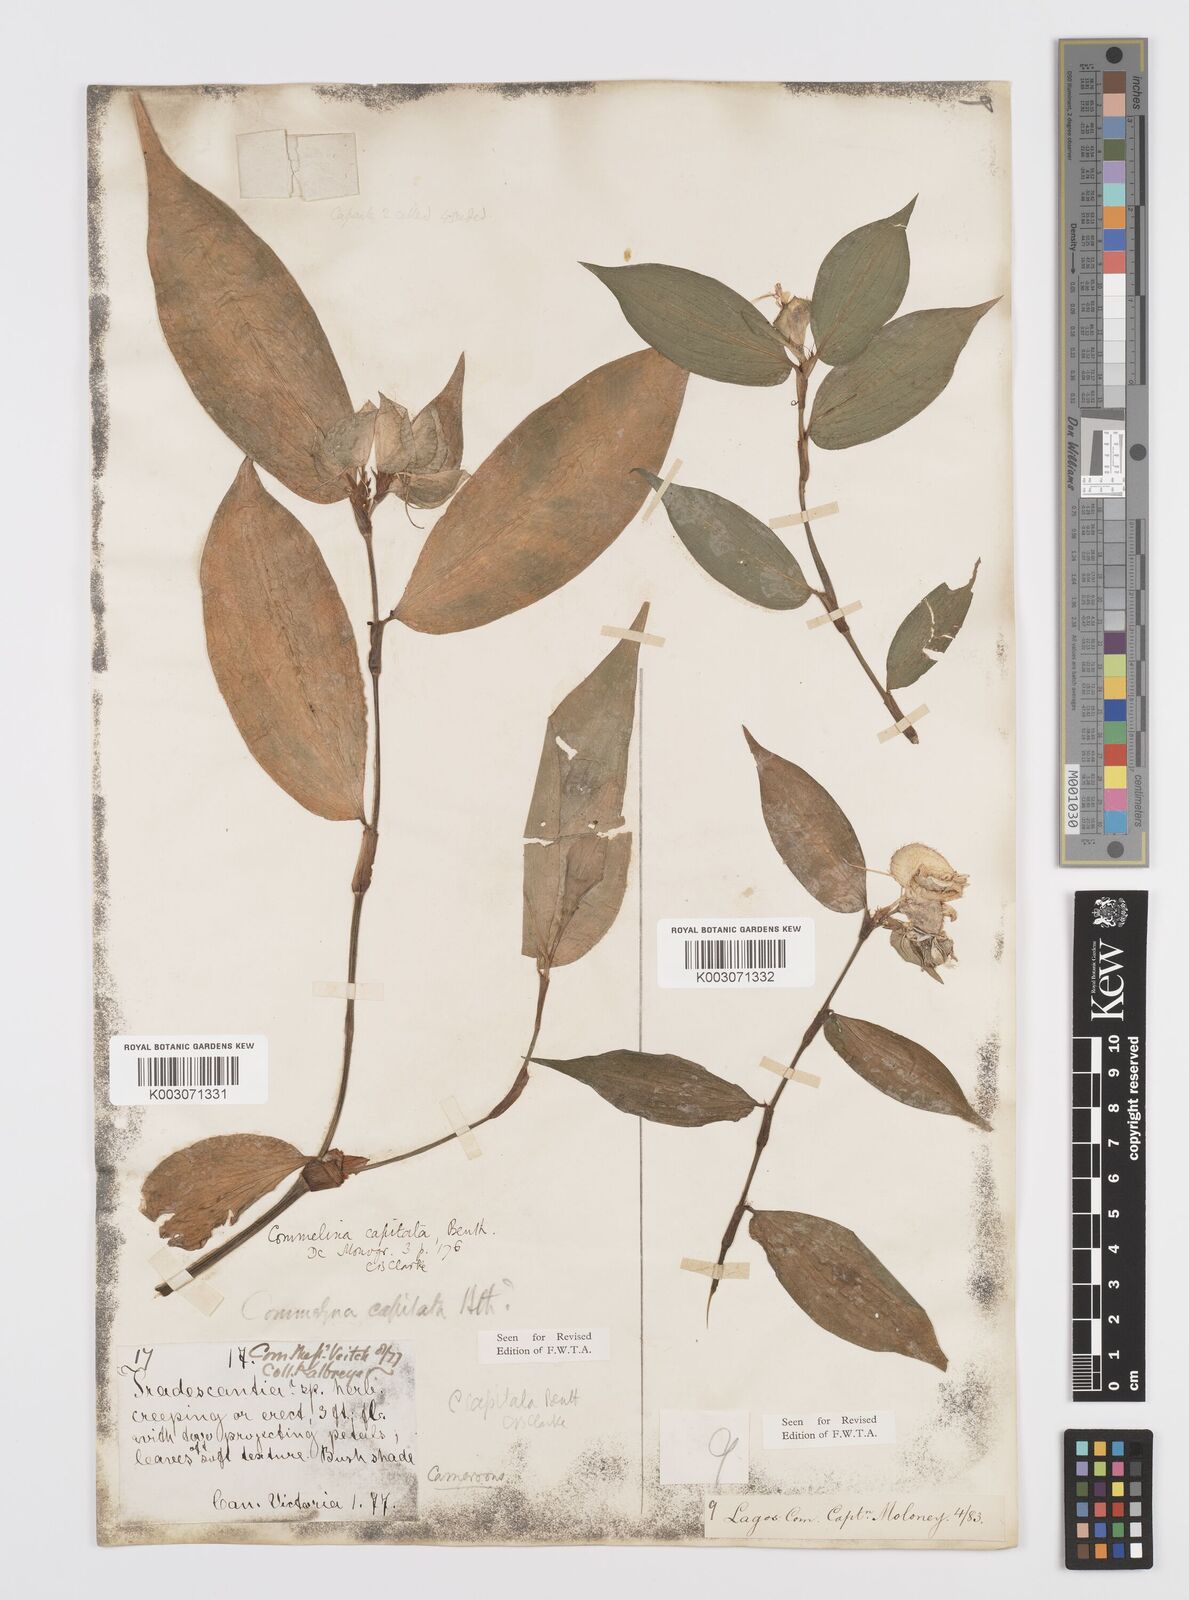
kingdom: Plantae
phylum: Tracheophyta
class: Liliopsida
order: Commelinales
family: Commelinaceae
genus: Commelina
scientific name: Commelina capitata
